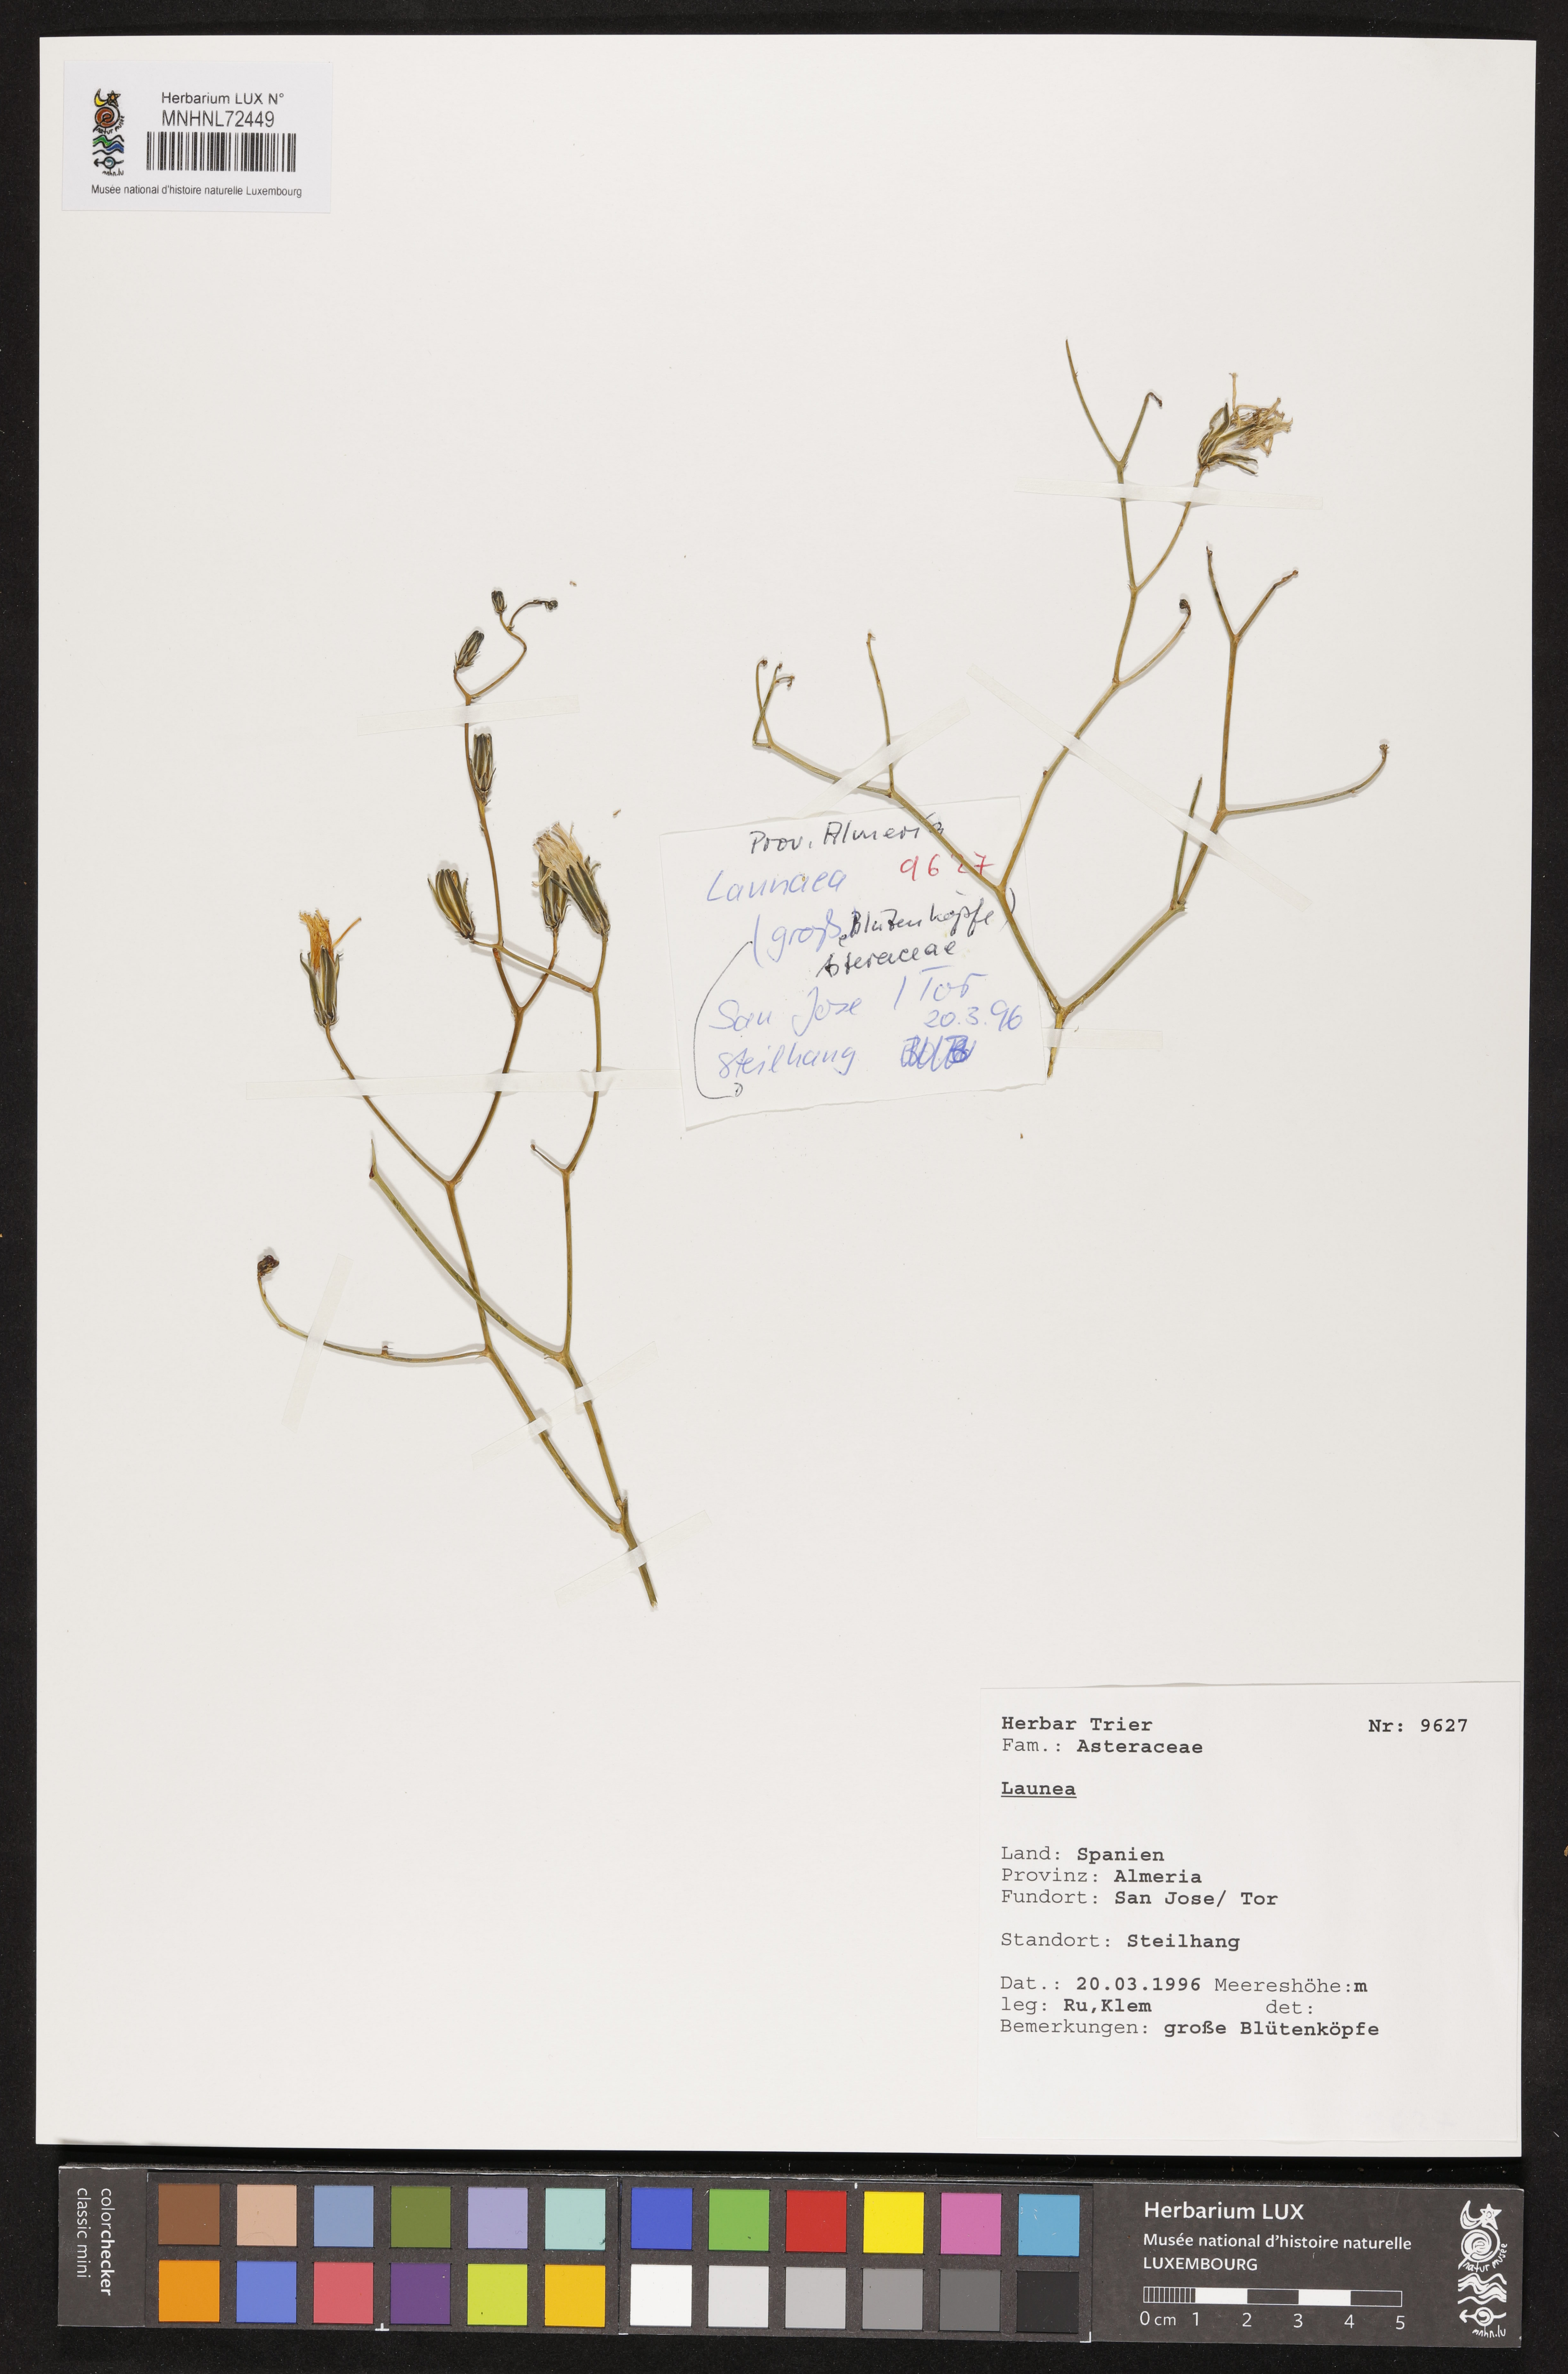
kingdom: Plantae
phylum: Tracheophyta
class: Magnoliopsida
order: Asterales
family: Asteraceae
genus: Launaea
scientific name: Launaea
